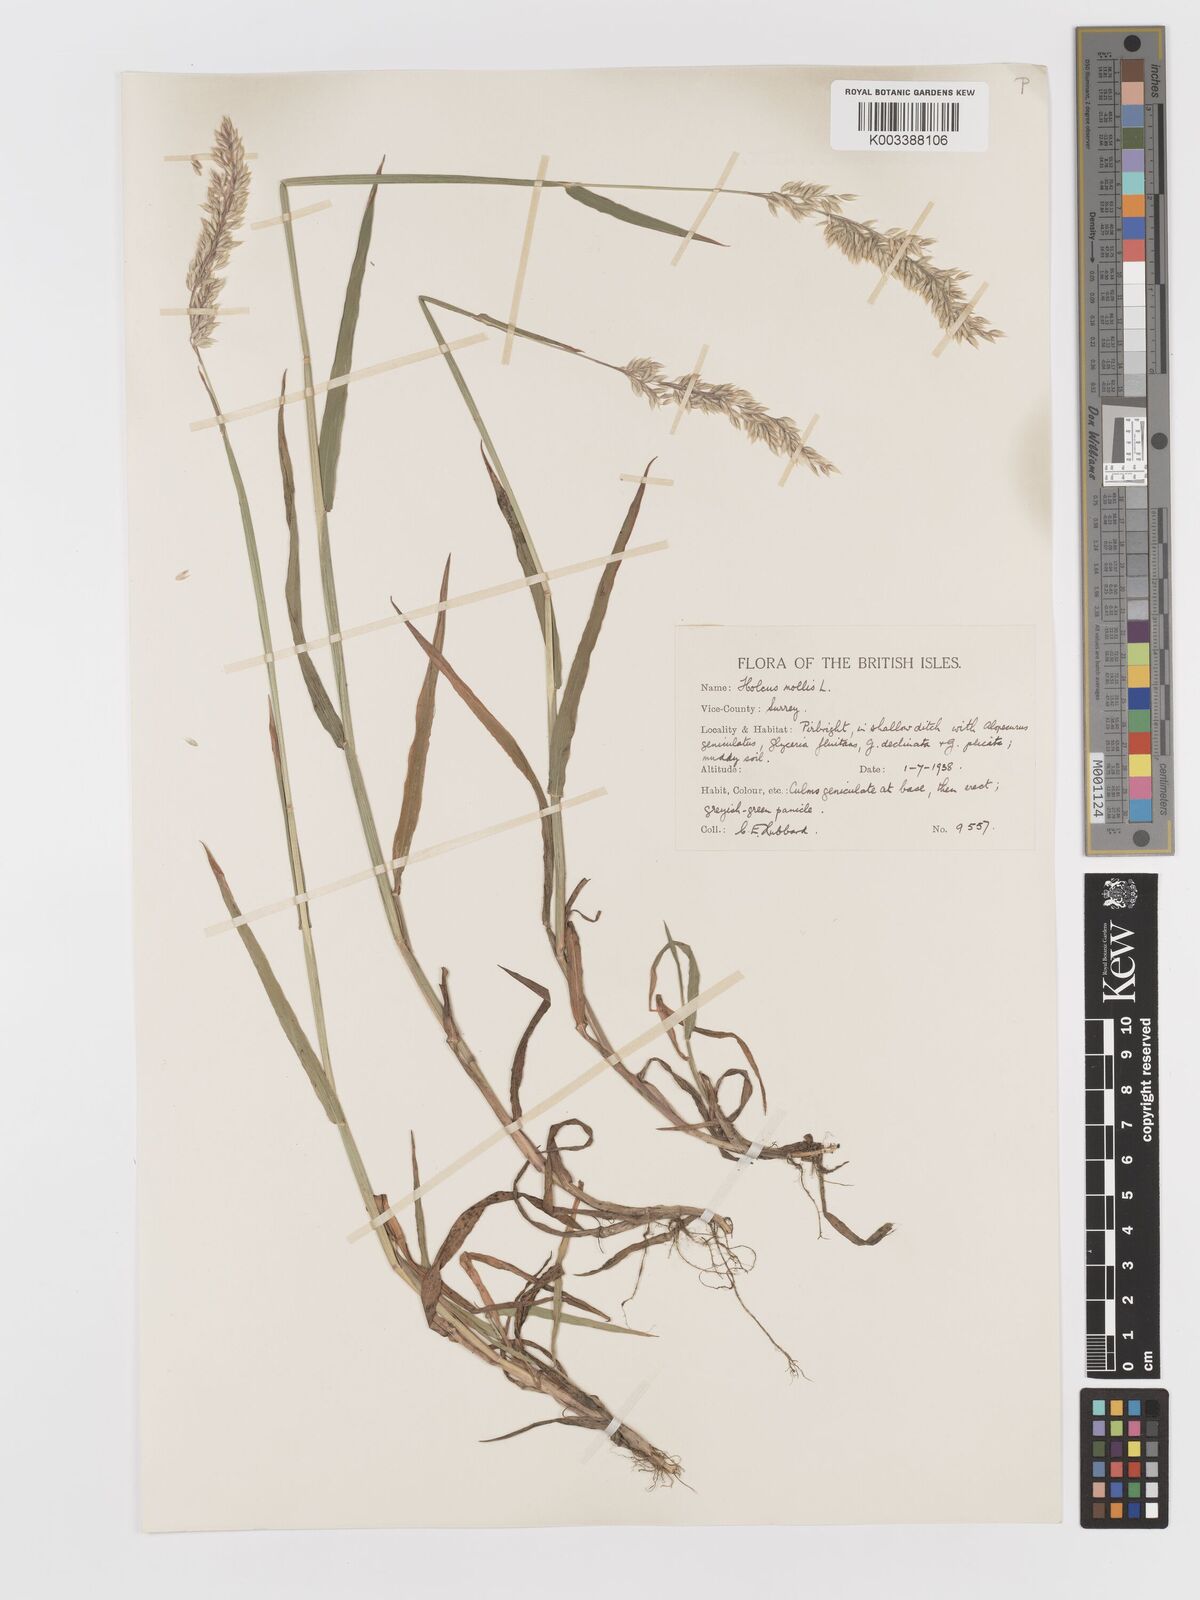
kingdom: Plantae
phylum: Tracheophyta
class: Liliopsida
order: Poales
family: Poaceae
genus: Holcus
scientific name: Holcus mollis
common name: Creeping velvetgrass
